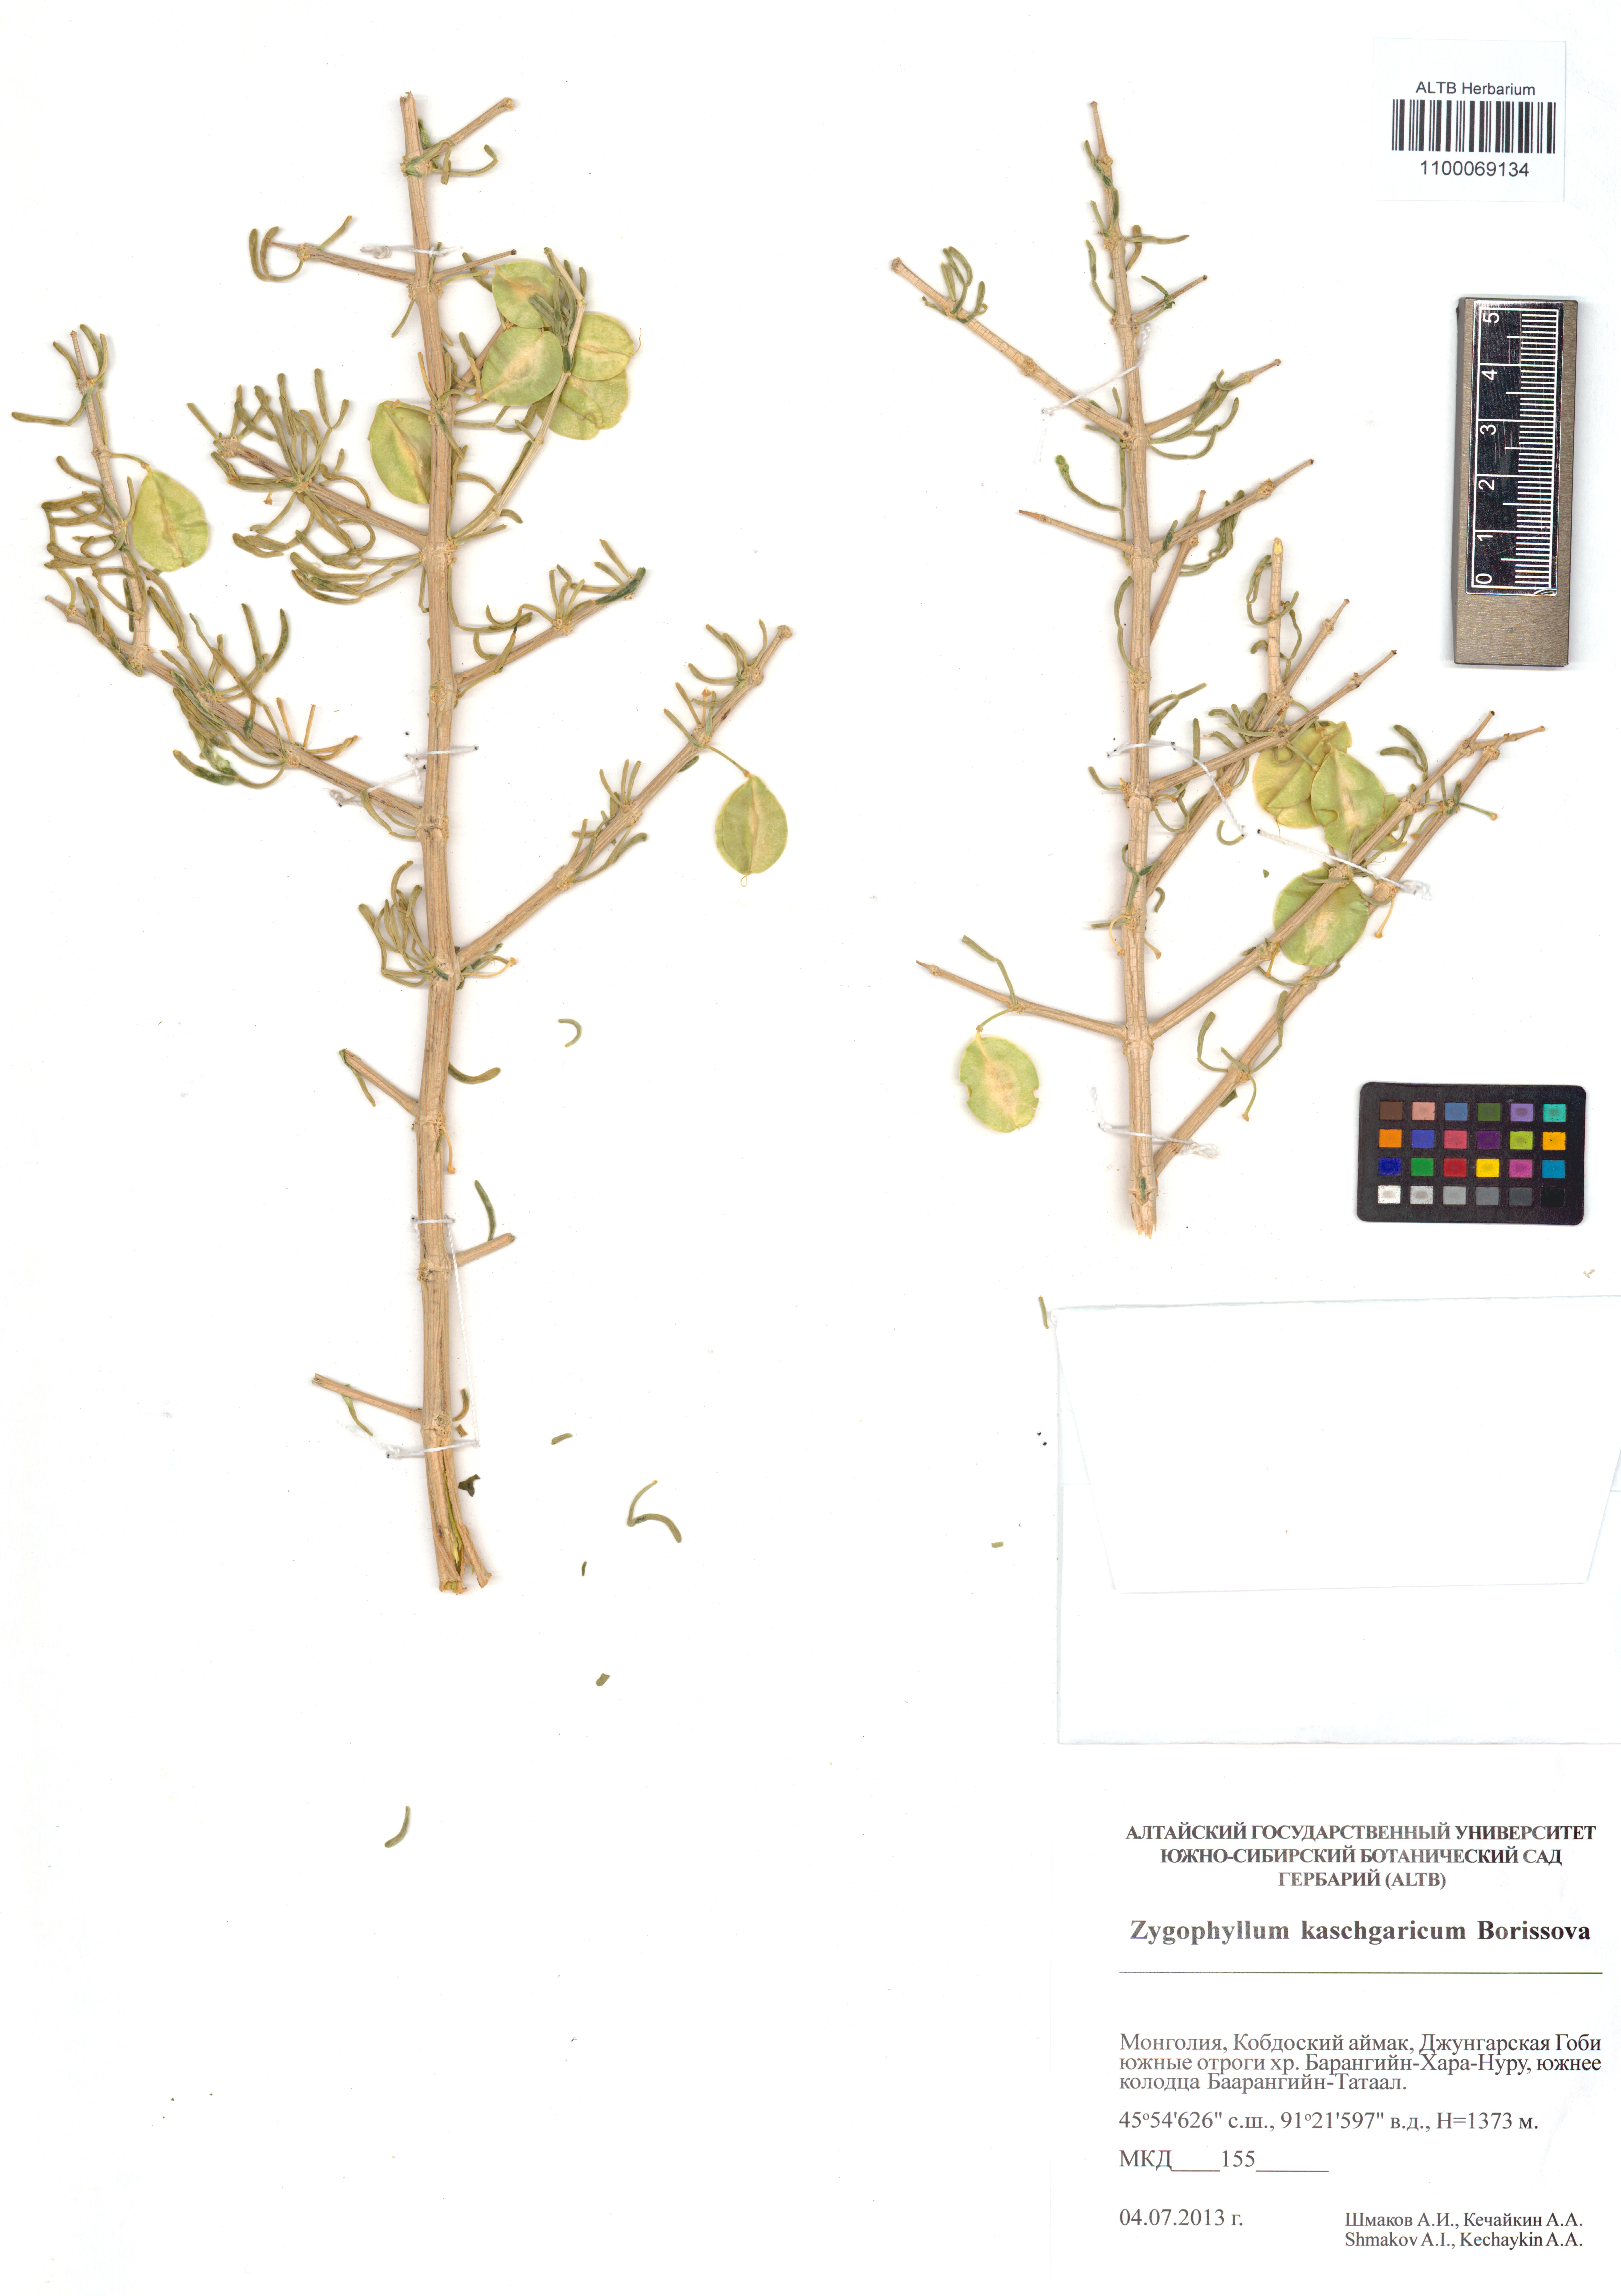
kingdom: Plantae
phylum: Tracheophyta
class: Magnoliopsida
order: Zygophyllales
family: Zygophyllaceae
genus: Zygophyllum
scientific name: Zygophyllum kaschgaricum
